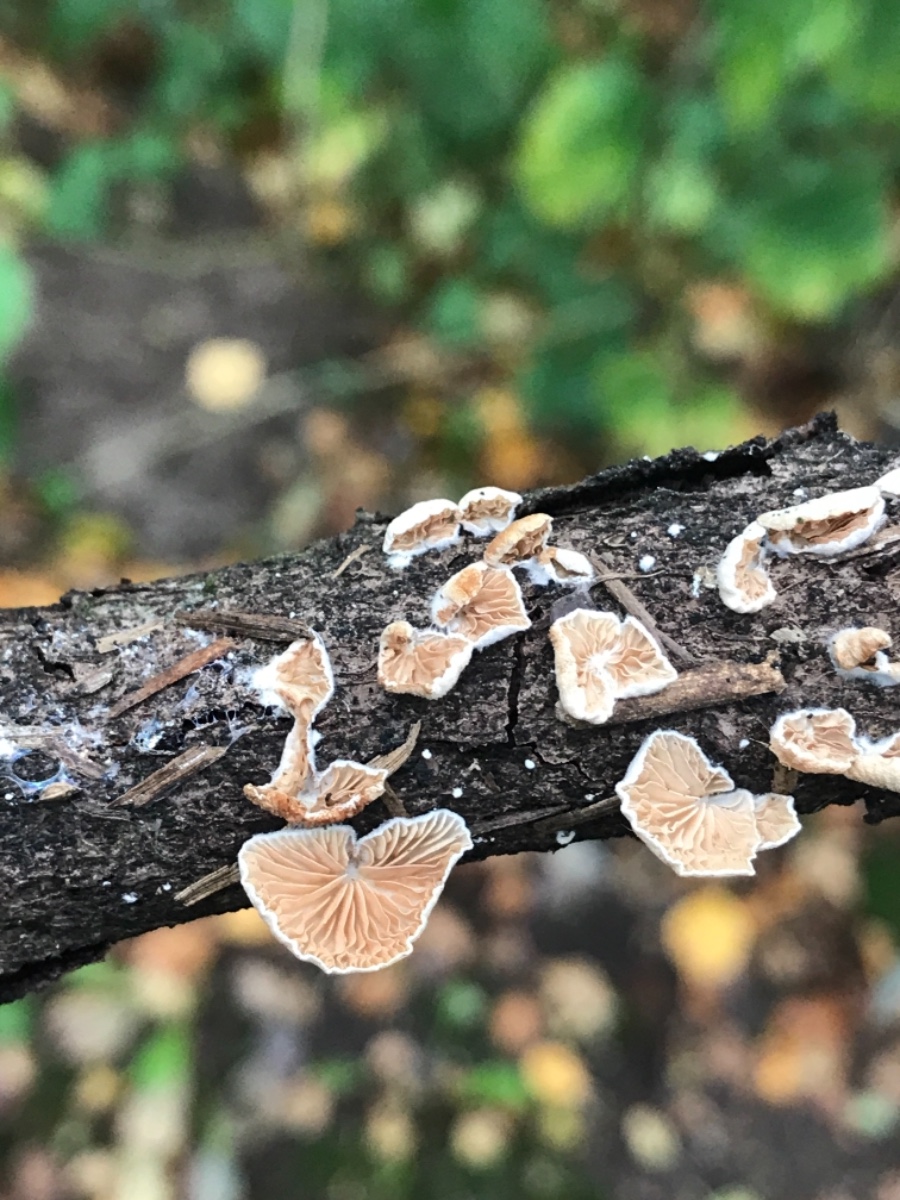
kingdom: Fungi
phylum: Basidiomycota
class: Agaricomycetes
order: Agaricales
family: Crepidotaceae
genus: Crepidotus
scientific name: Crepidotus cesatii
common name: almindelig muslingesvamp
